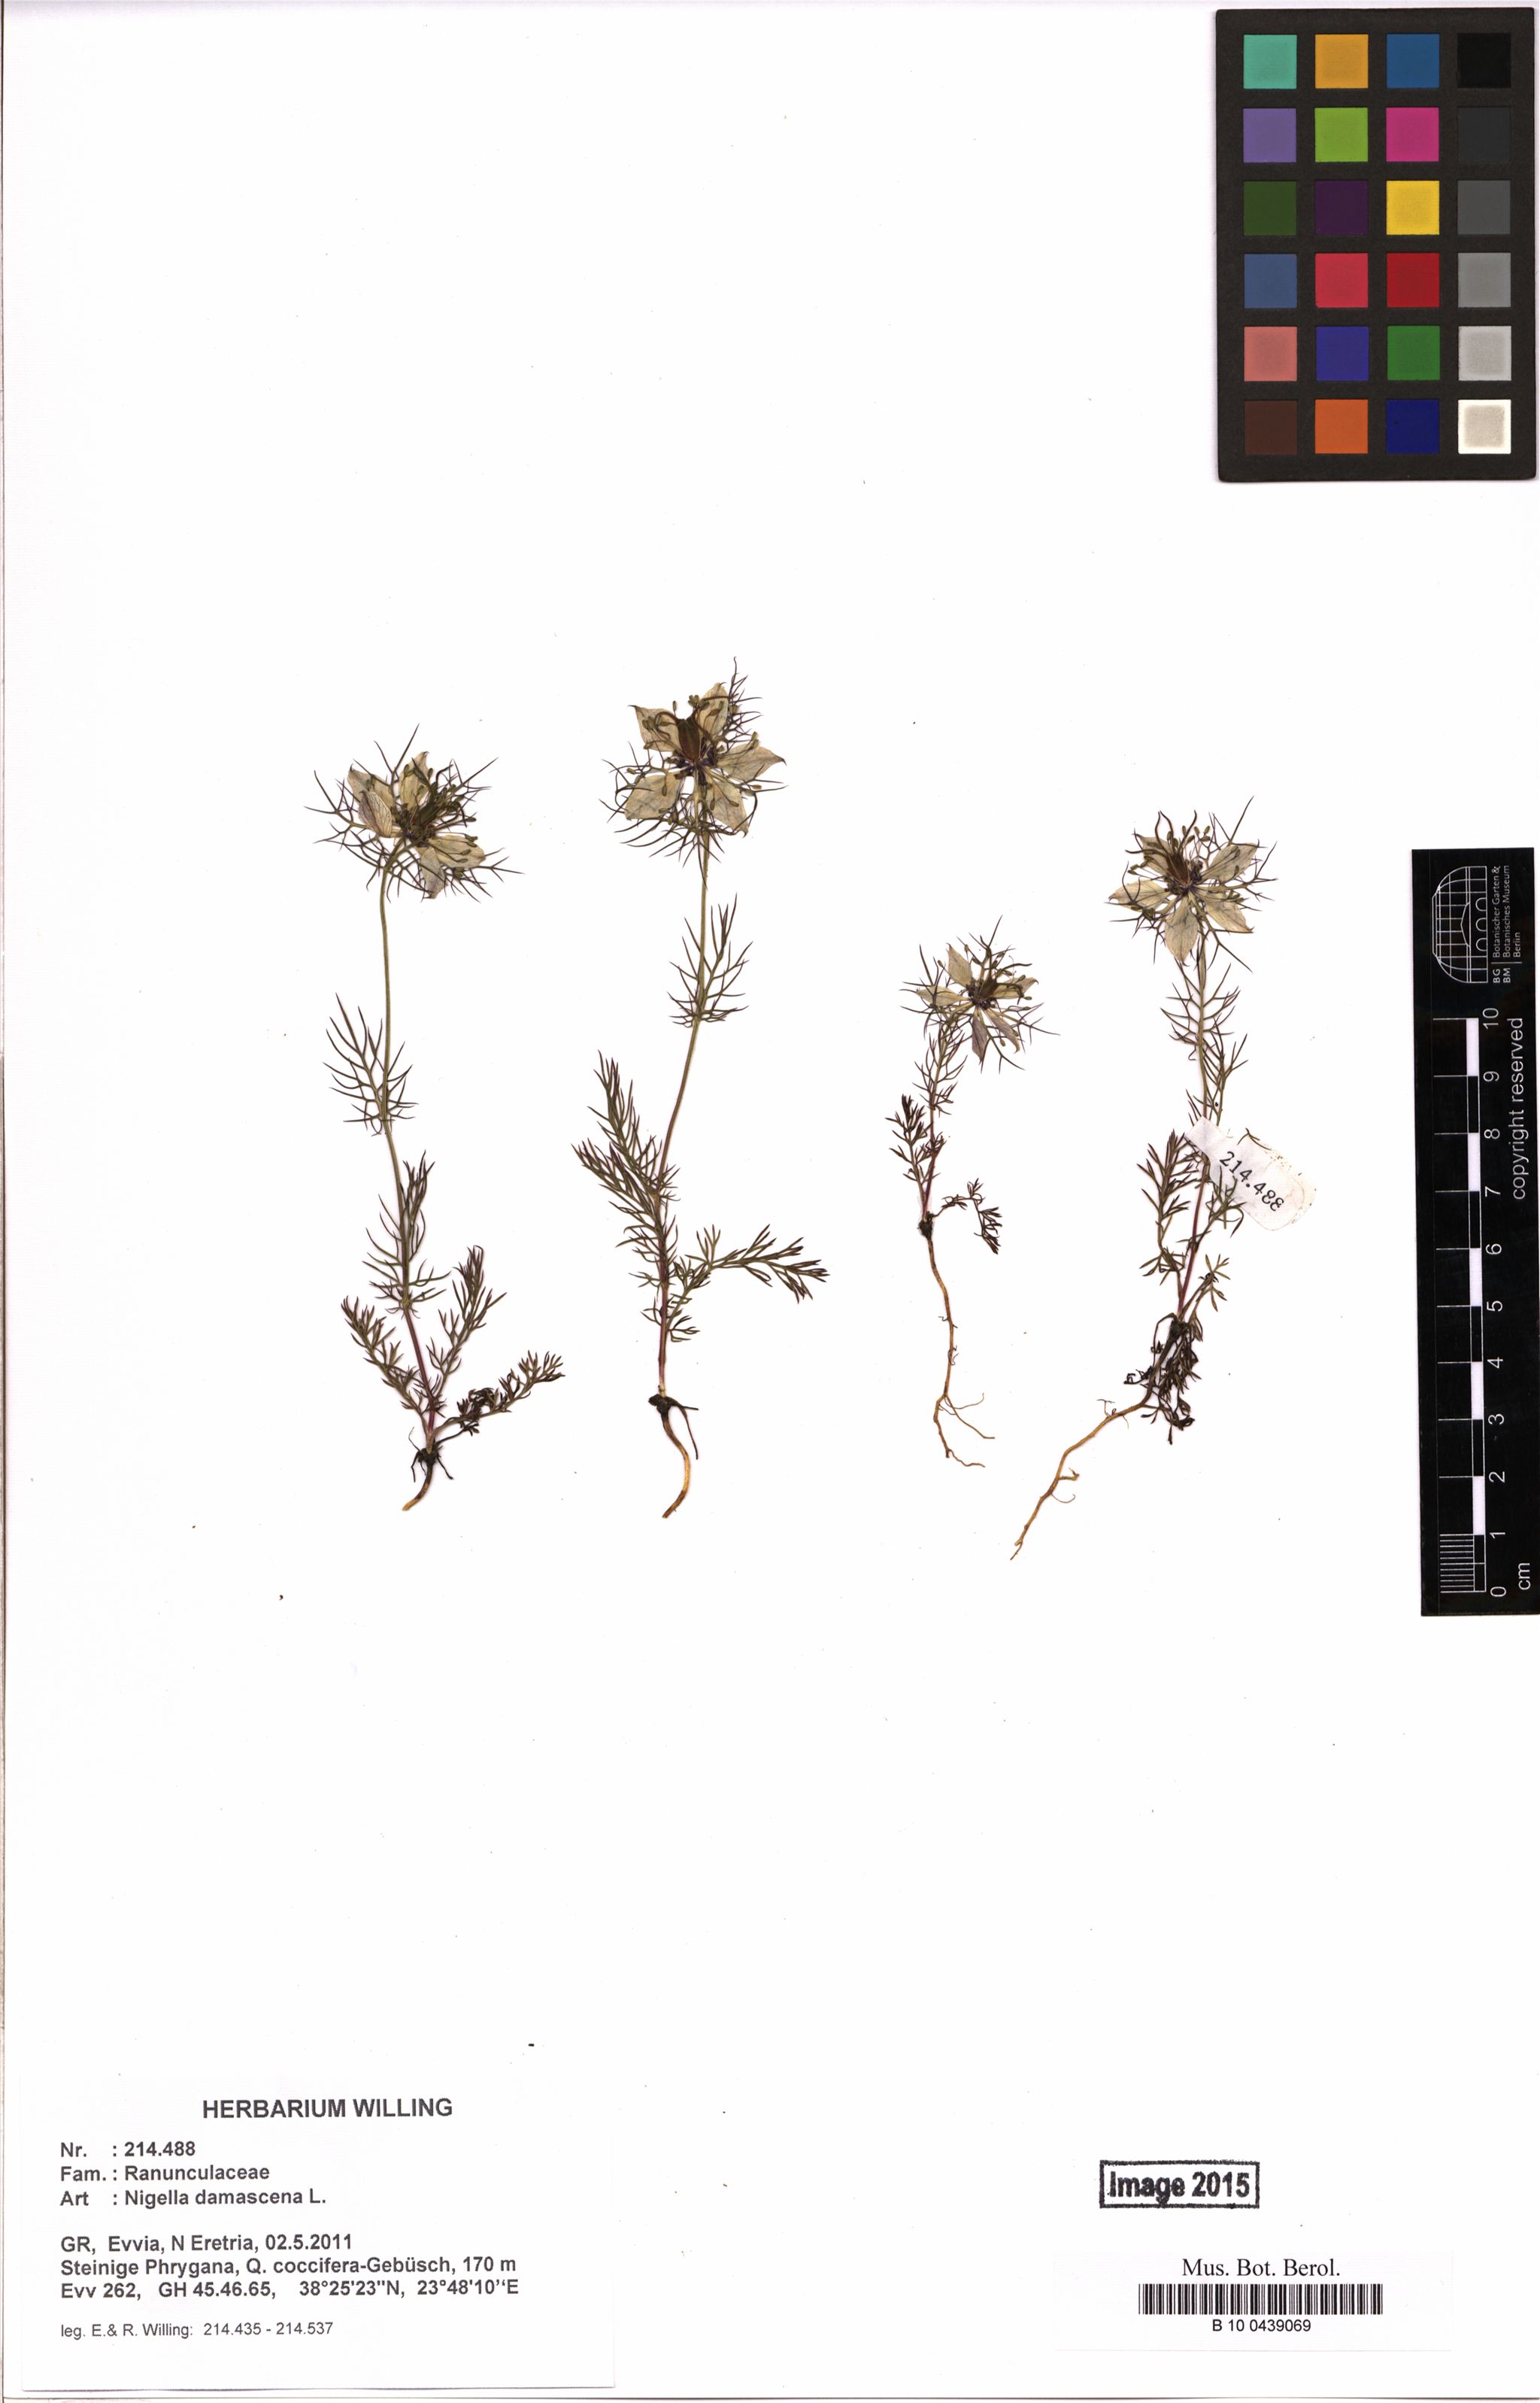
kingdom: Plantae
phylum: Tracheophyta
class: Magnoliopsida
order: Ranunculales
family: Ranunculaceae
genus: Nigella
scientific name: Nigella damascena
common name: Love-in-a-mist
